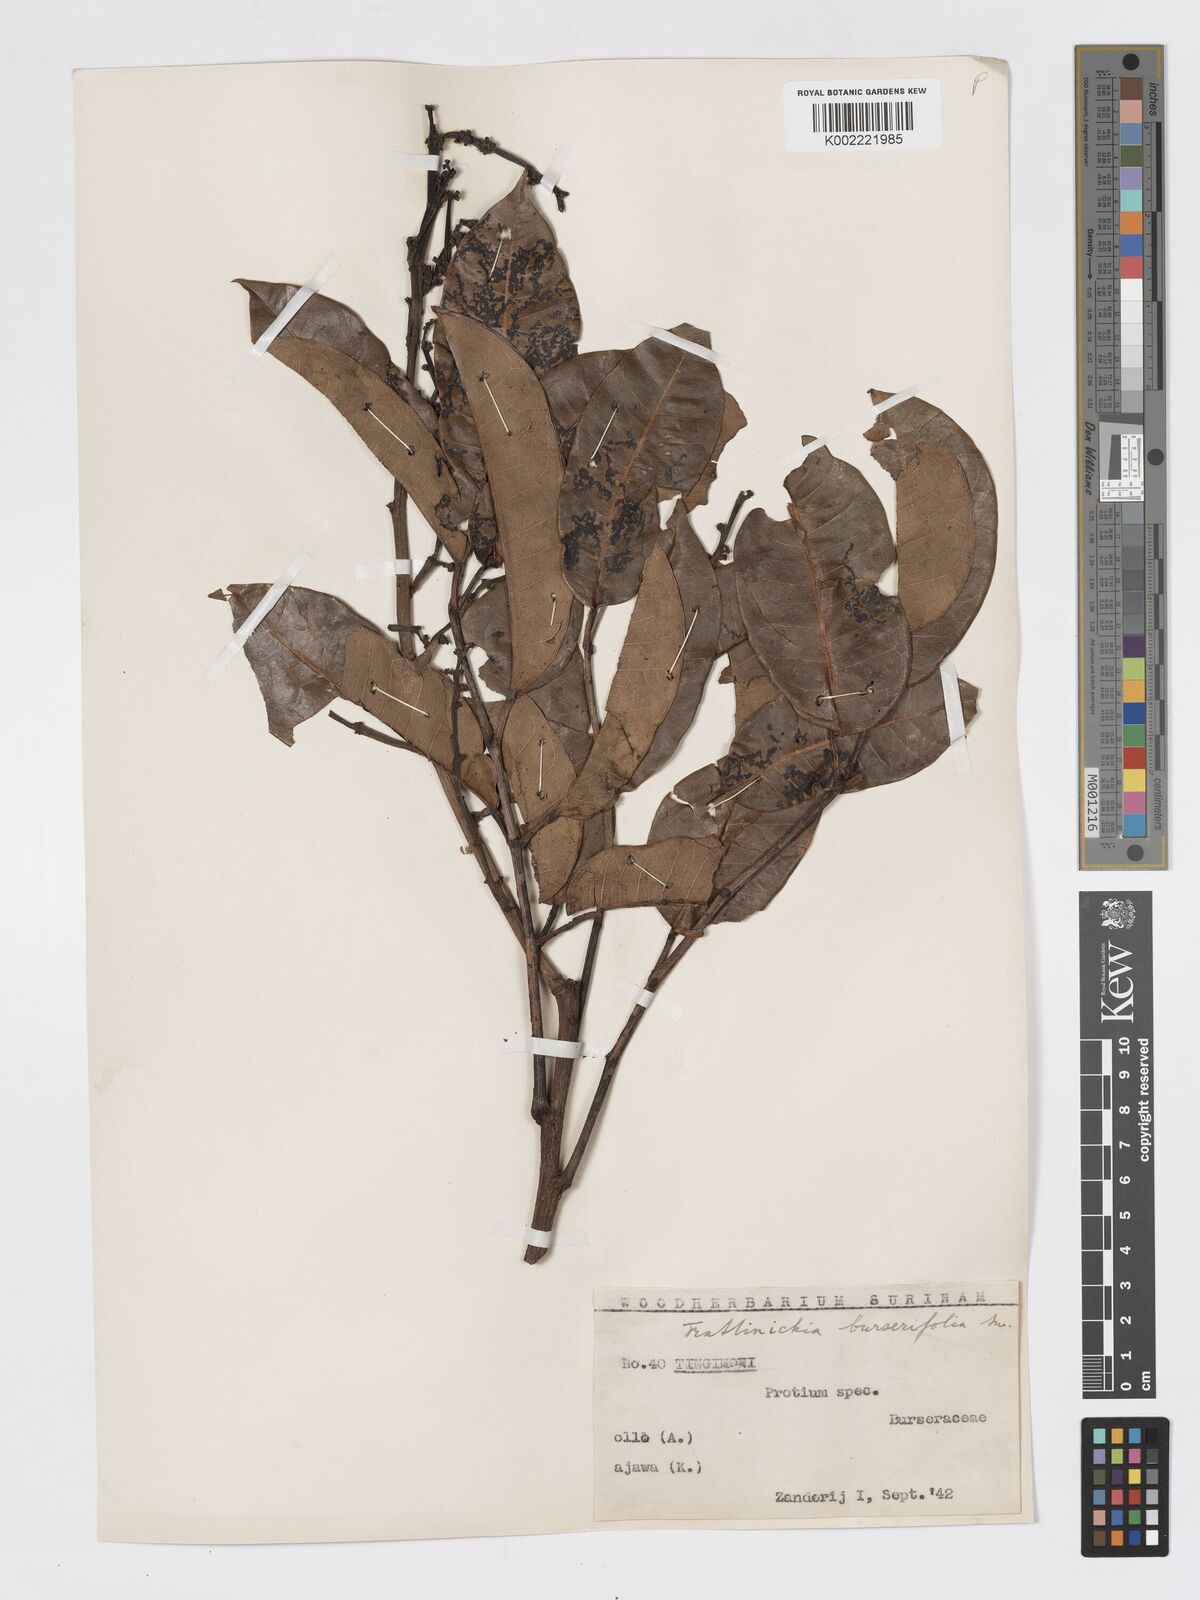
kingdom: Plantae
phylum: Tracheophyta
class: Magnoliopsida
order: Sapindales
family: Burseraceae
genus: Trattinnickia
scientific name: Trattinnickia burserifolia
